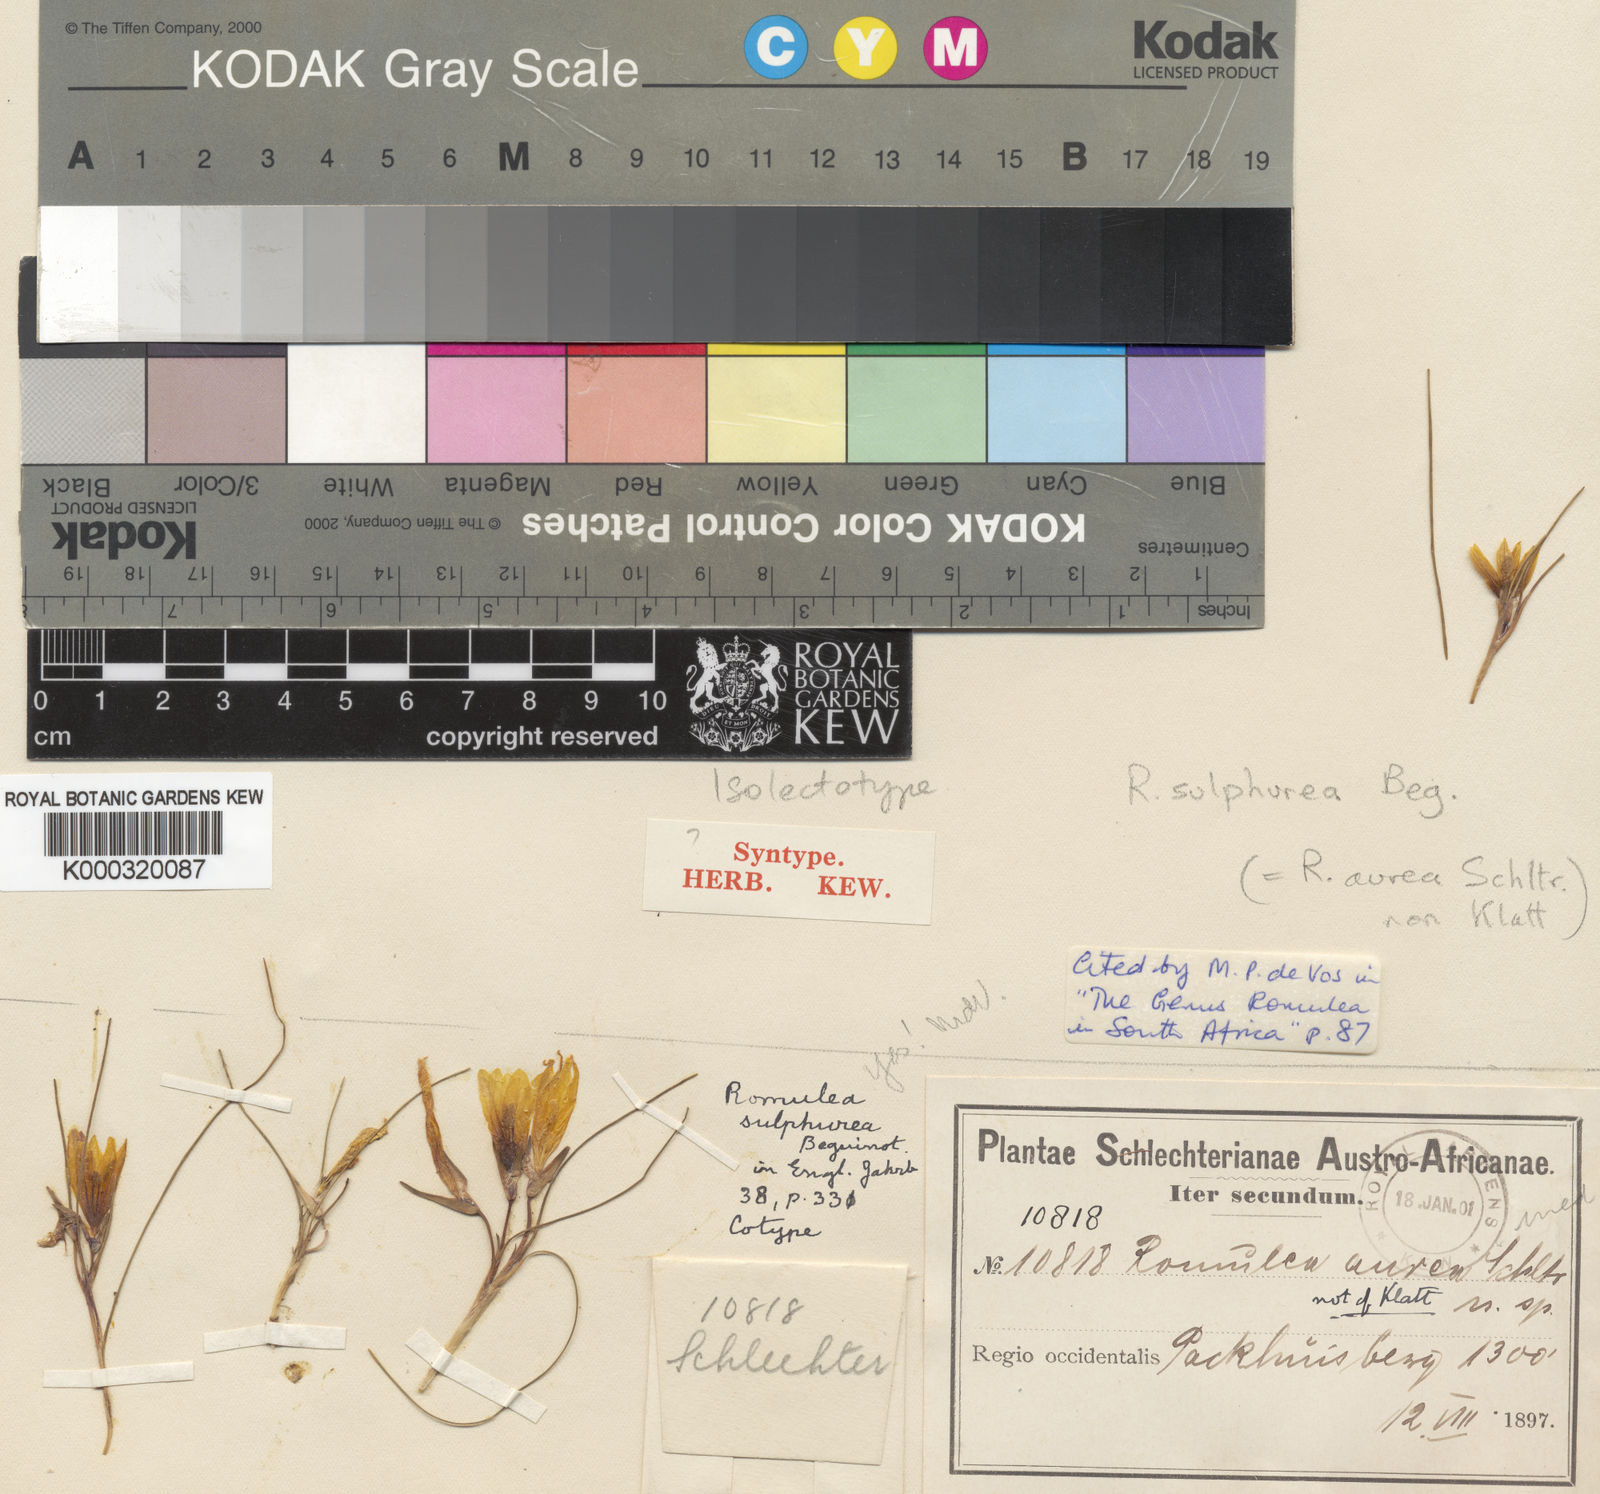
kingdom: Plantae
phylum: Tracheophyta
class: Liliopsida
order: Asparagales
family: Iridaceae
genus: Romulea
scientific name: Romulea
